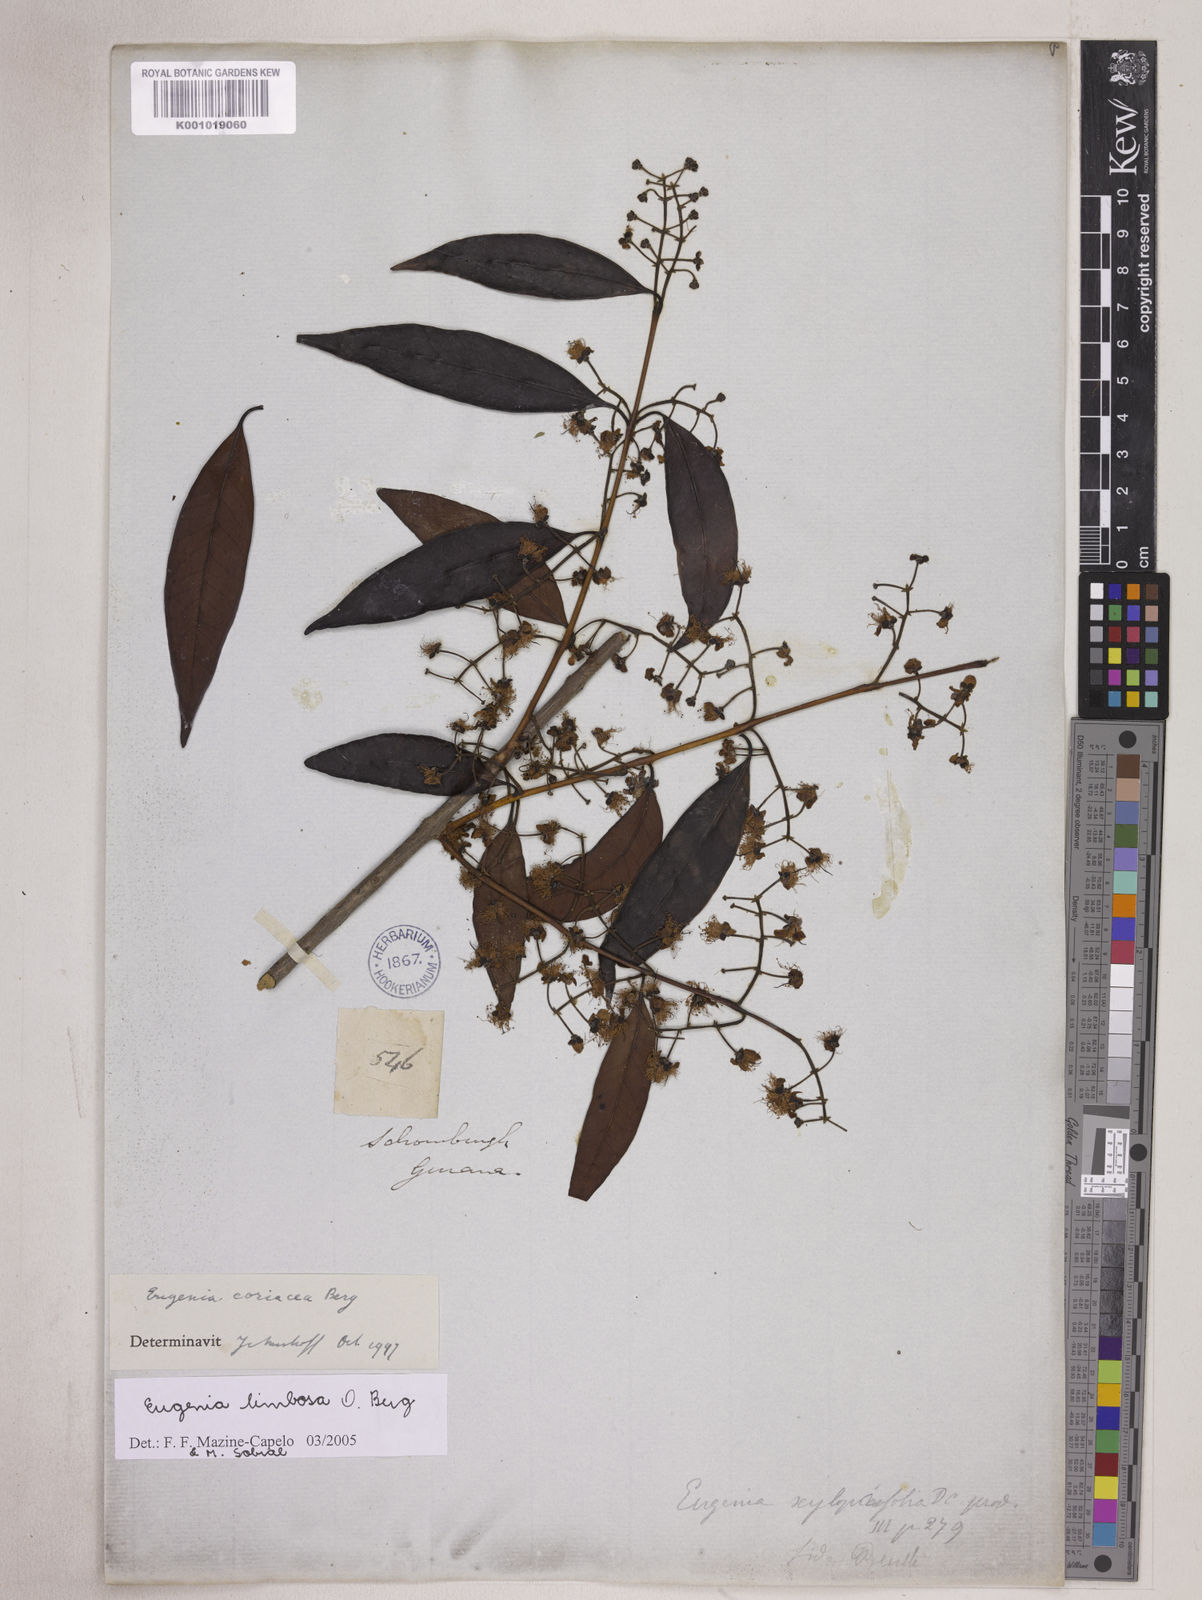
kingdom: Plantae
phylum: Tracheophyta
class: Magnoliopsida
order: Myrtales
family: Myrtaceae
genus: Eugenia
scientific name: Eugenia limbosa
